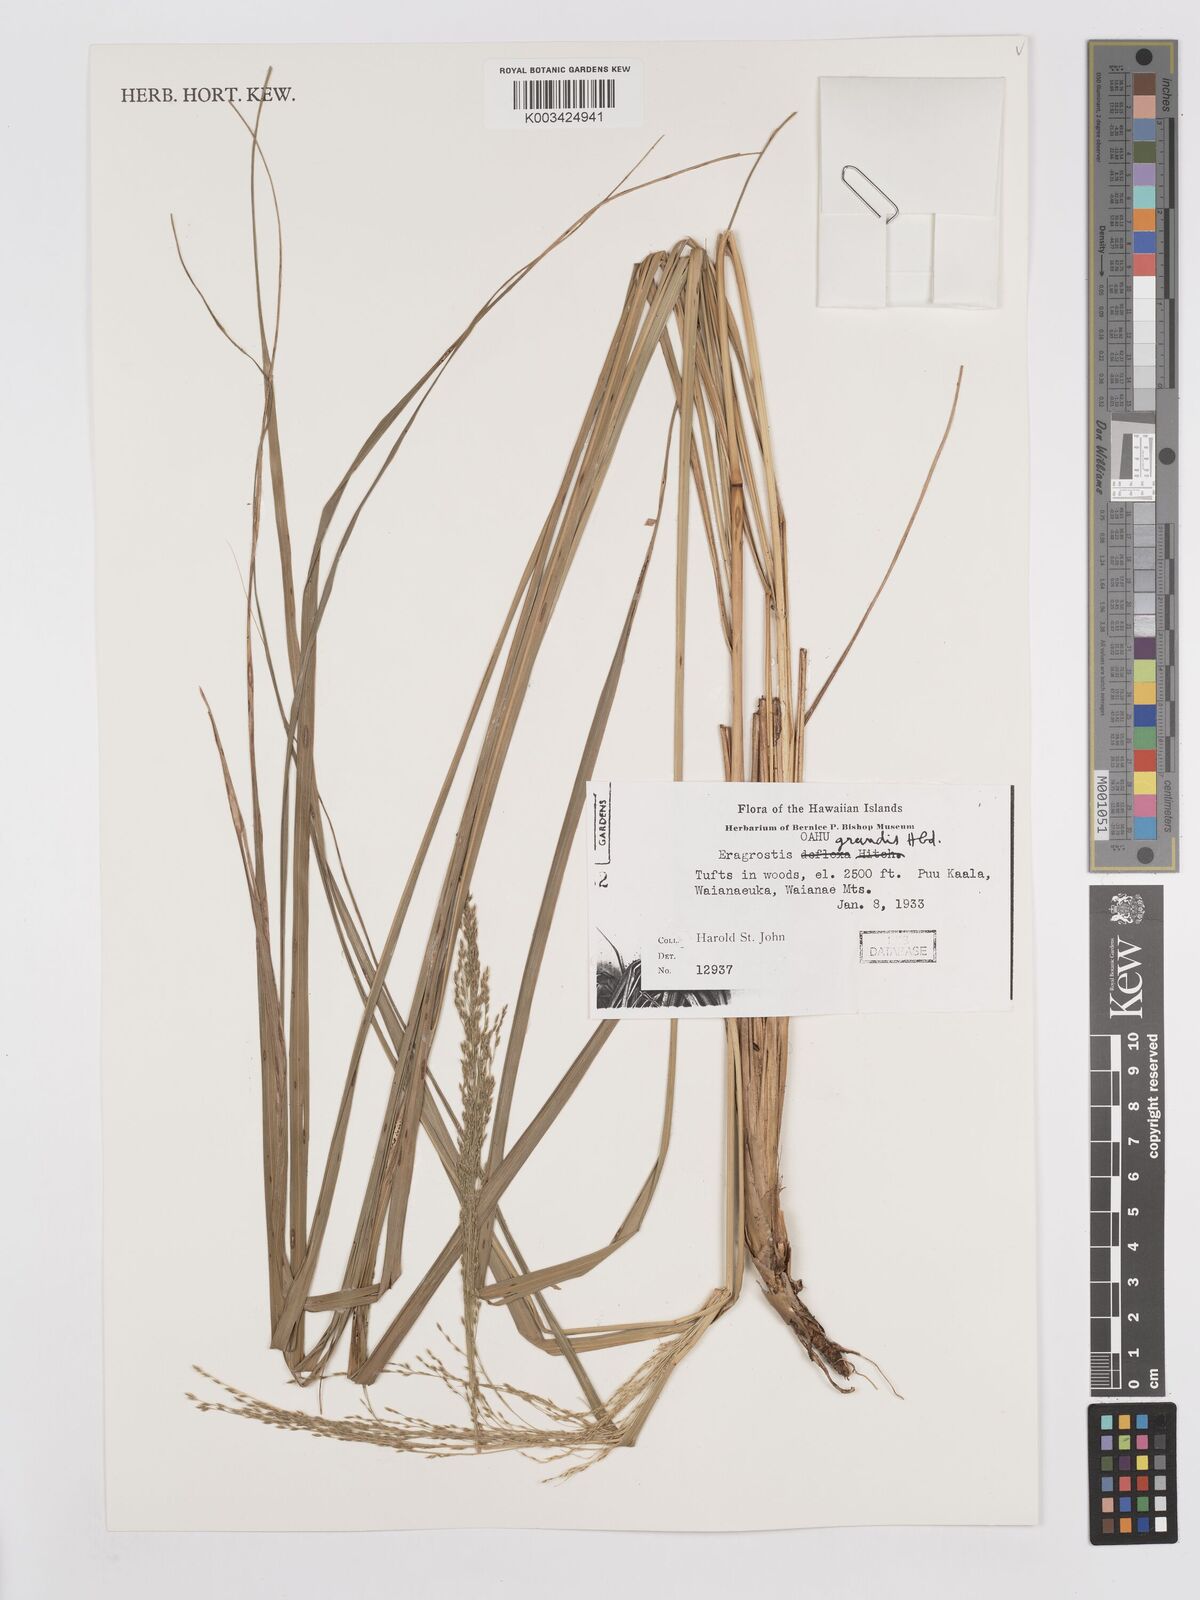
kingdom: Plantae
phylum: Tracheophyta
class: Liliopsida
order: Poales
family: Poaceae
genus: Eragrostis
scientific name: Eragrostis grandis
